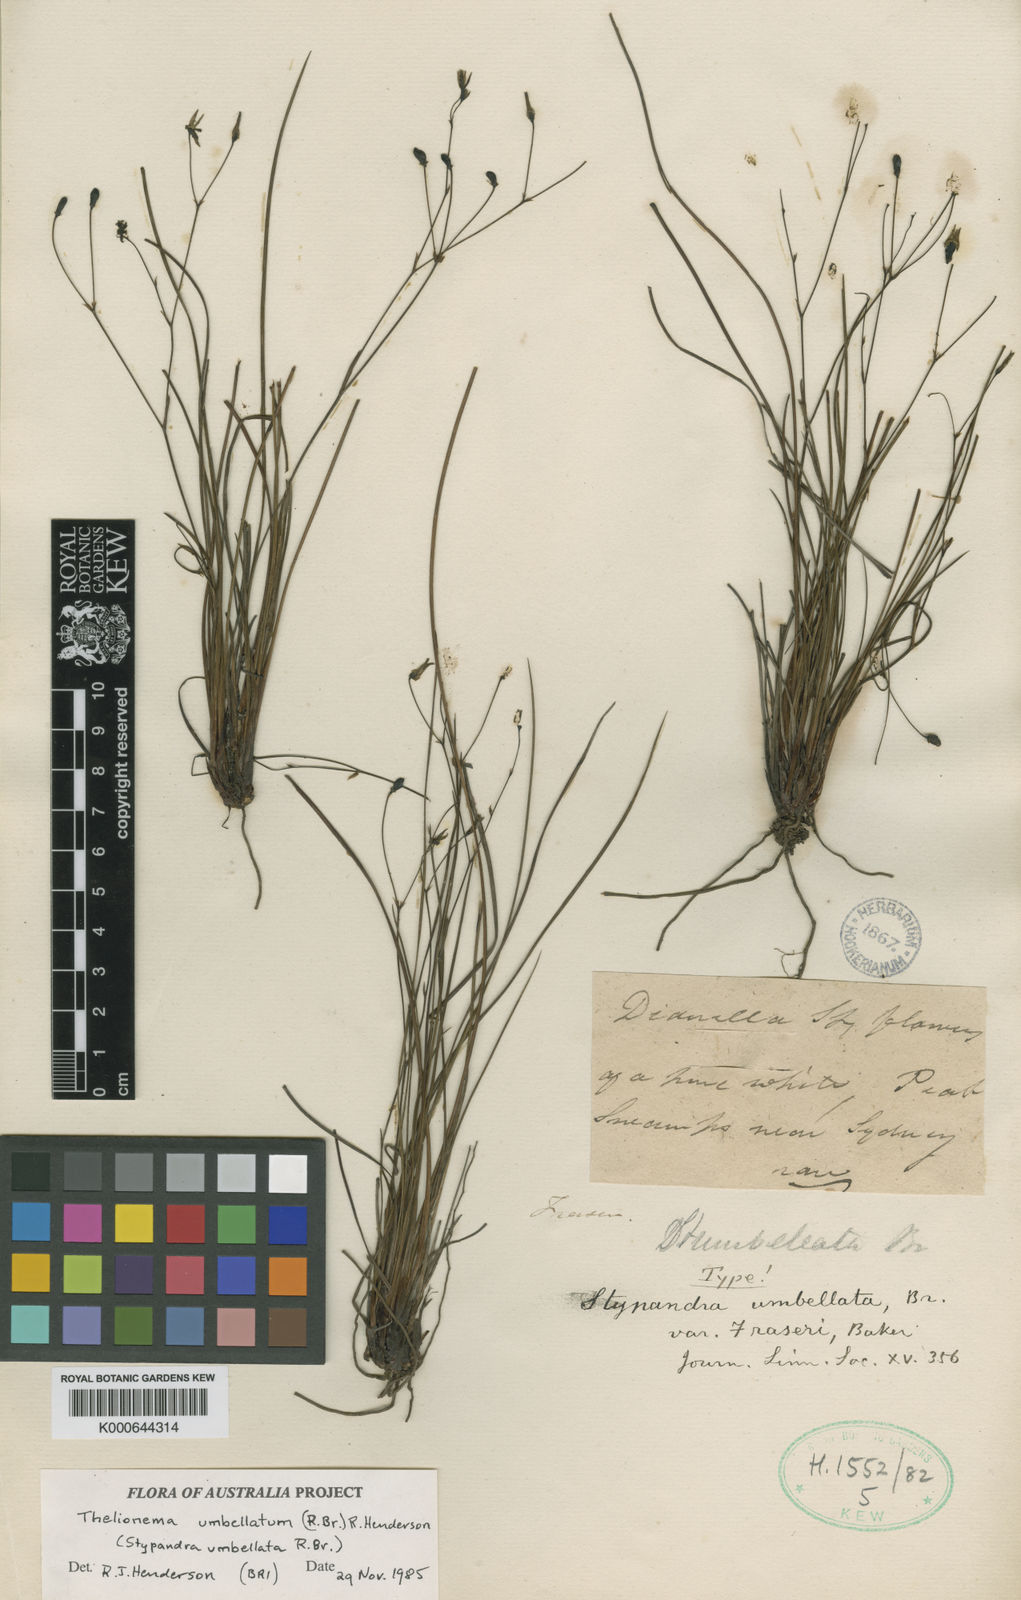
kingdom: Plantae
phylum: Tracheophyta
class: Liliopsida
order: Asparagales
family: Asphodelaceae
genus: Thelionema
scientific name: Thelionema umbellatum
